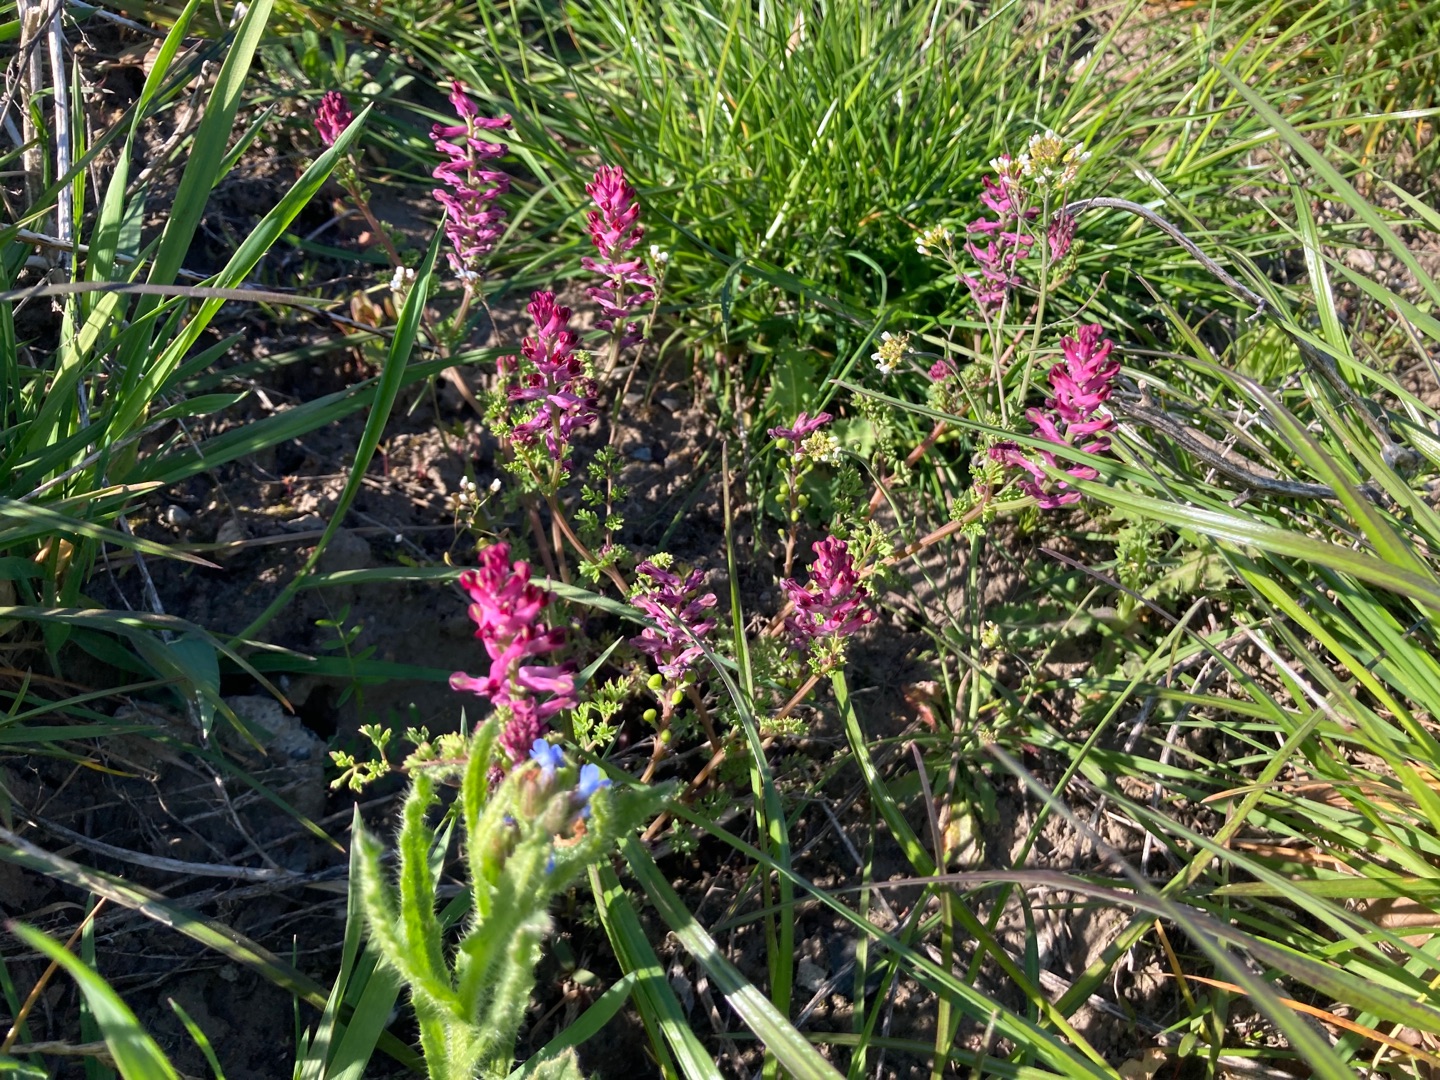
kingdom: Plantae
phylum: Tracheophyta
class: Magnoliopsida
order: Ranunculales
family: Papaveraceae
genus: Fumaria
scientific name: Fumaria officinalis
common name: Læge-jordrøg
